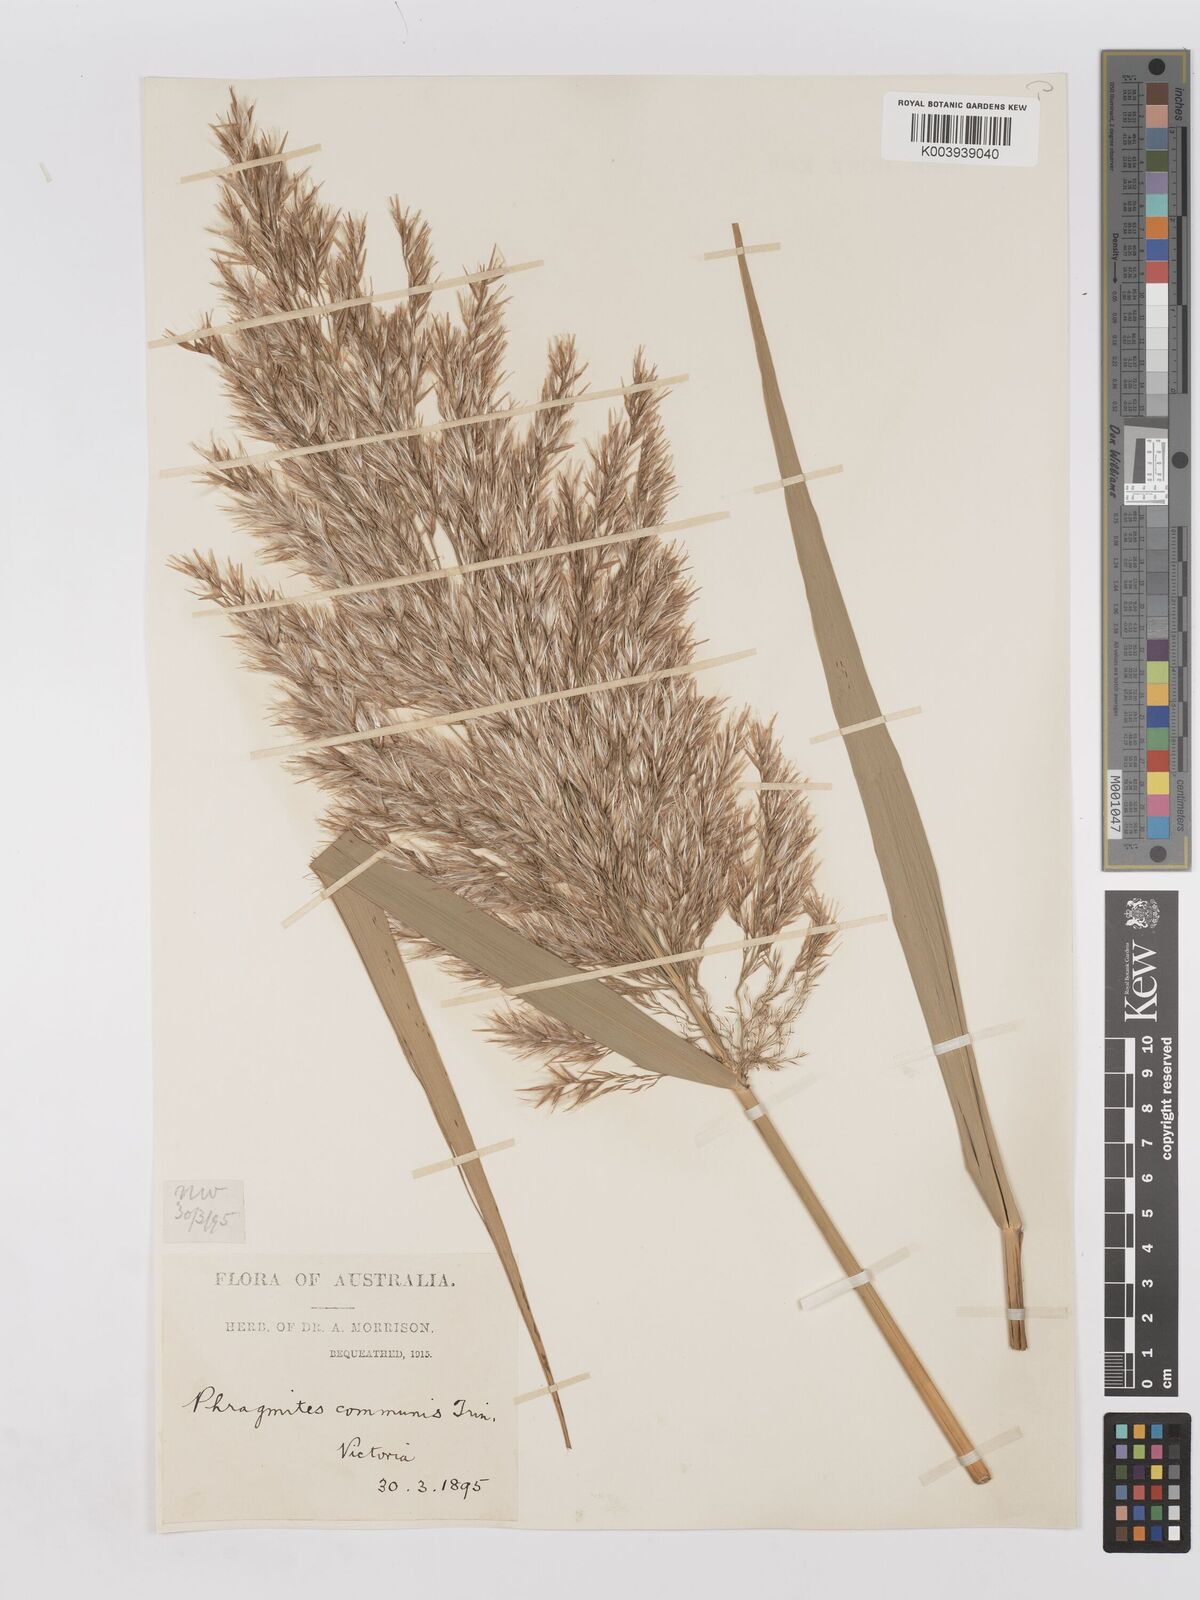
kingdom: Plantae
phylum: Tracheophyta
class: Liliopsida
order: Poales
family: Poaceae
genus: Phragmites
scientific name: Phragmites australis
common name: Common reed
